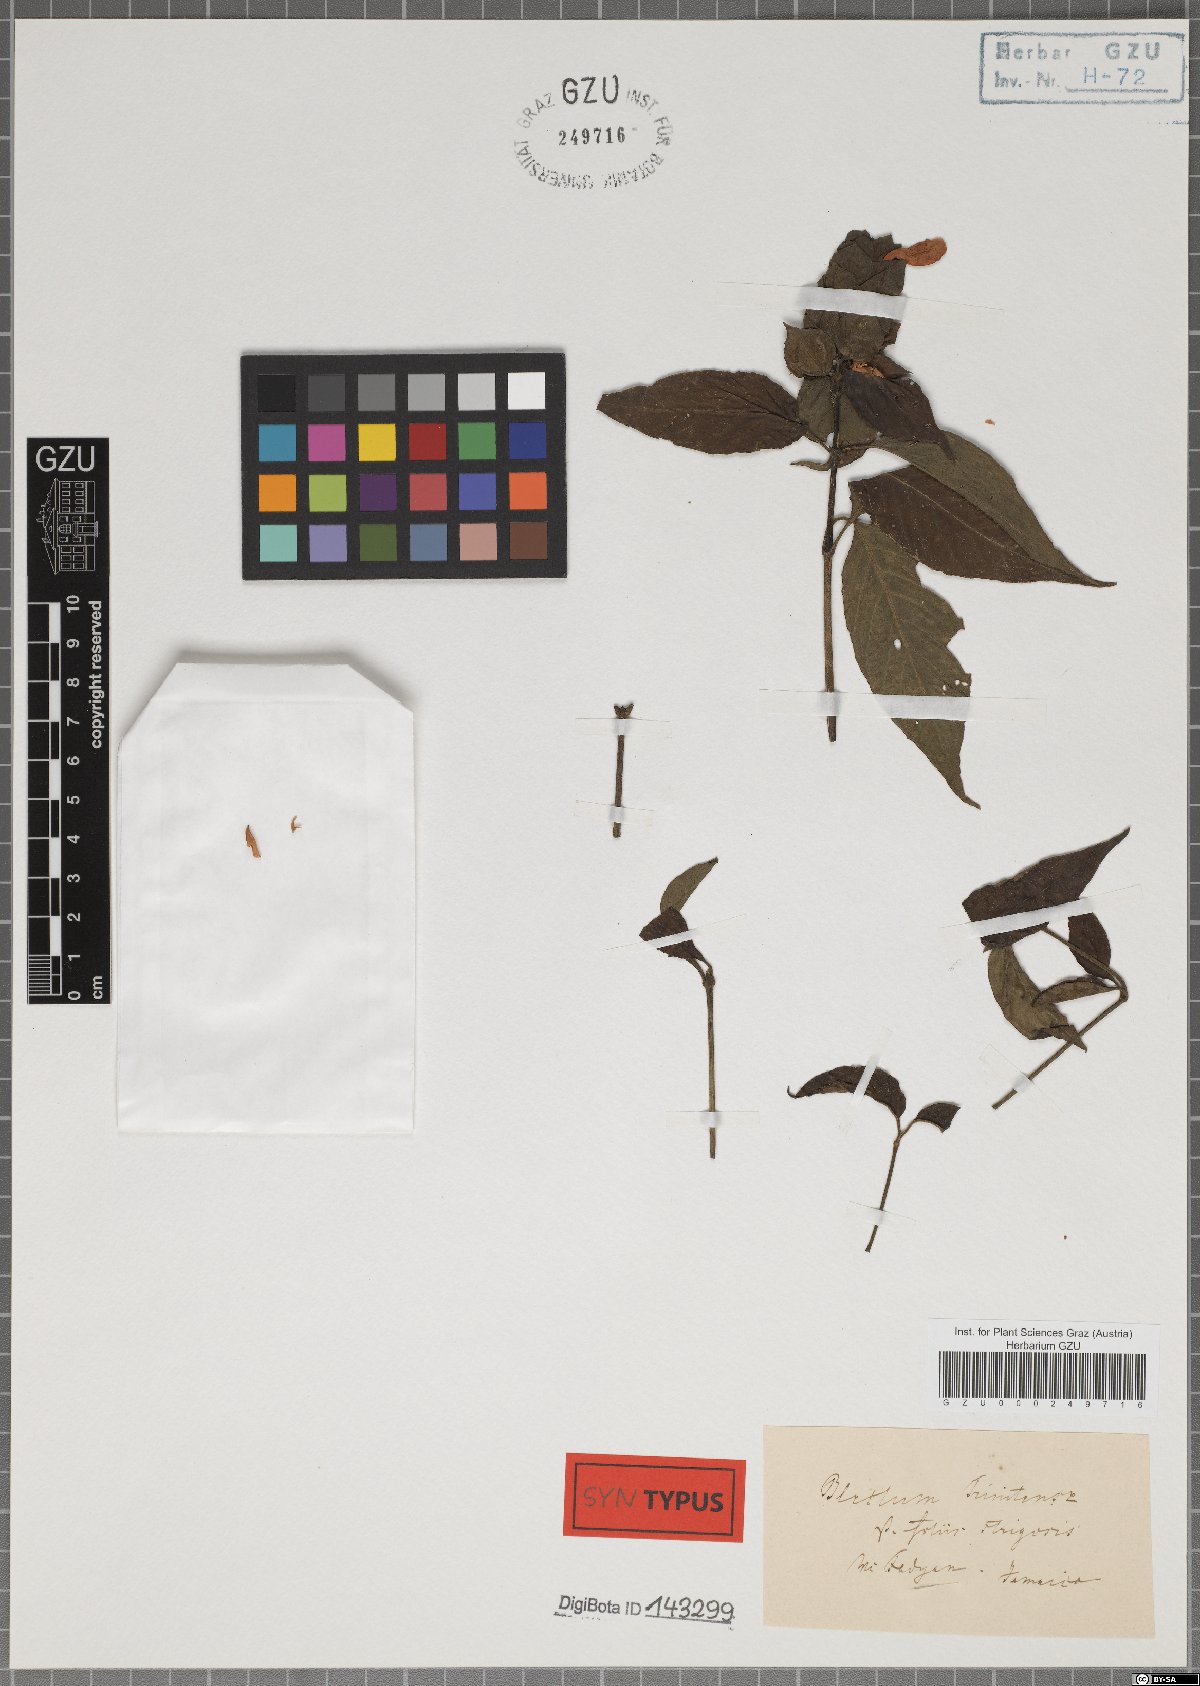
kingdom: Plantae
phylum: Tracheophyta
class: Magnoliopsida
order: Lamiales
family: Acanthaceae
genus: Ruellia
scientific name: Ruellia blechum
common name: Browne's blechum
